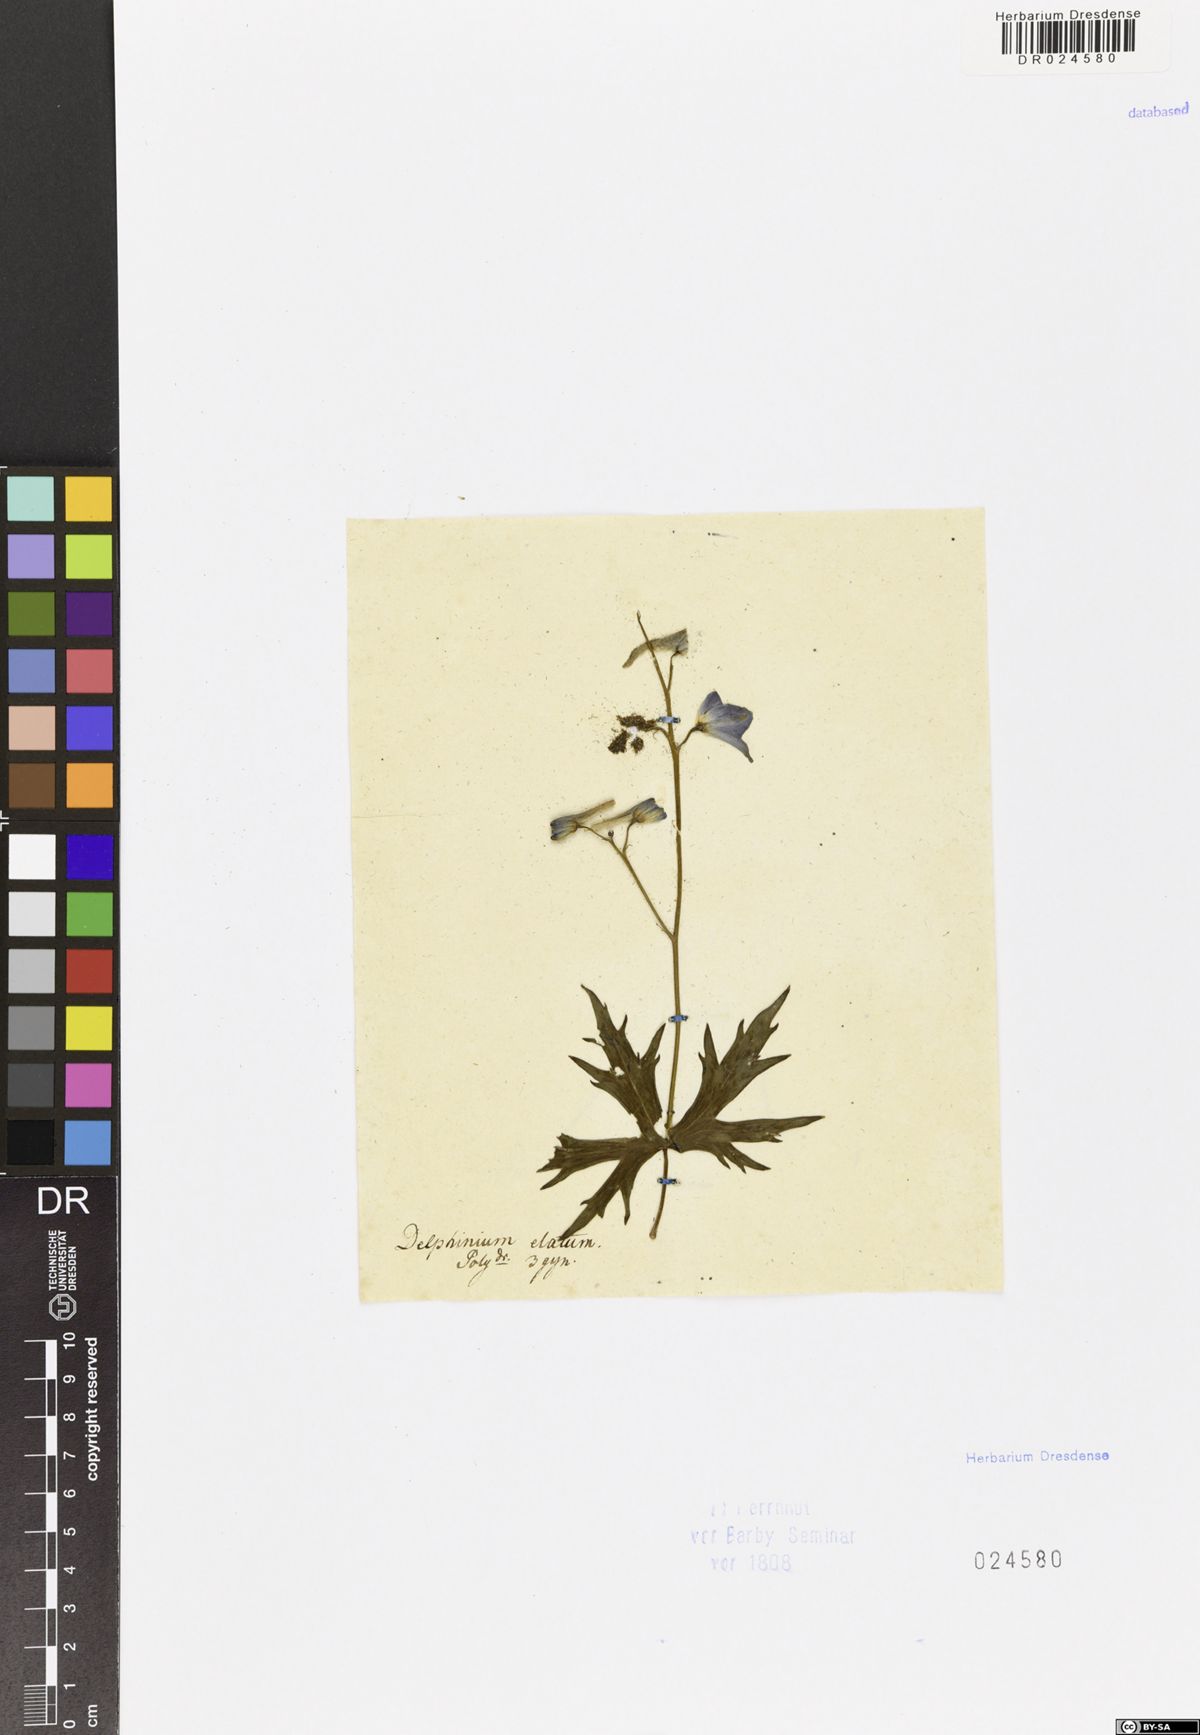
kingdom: Plantae
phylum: Tracheophyta
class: Magnoliopsida
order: Ranunculales
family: Ranunculaceae
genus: Delphinium
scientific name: Delphinium elatum
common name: Candle larkspur
